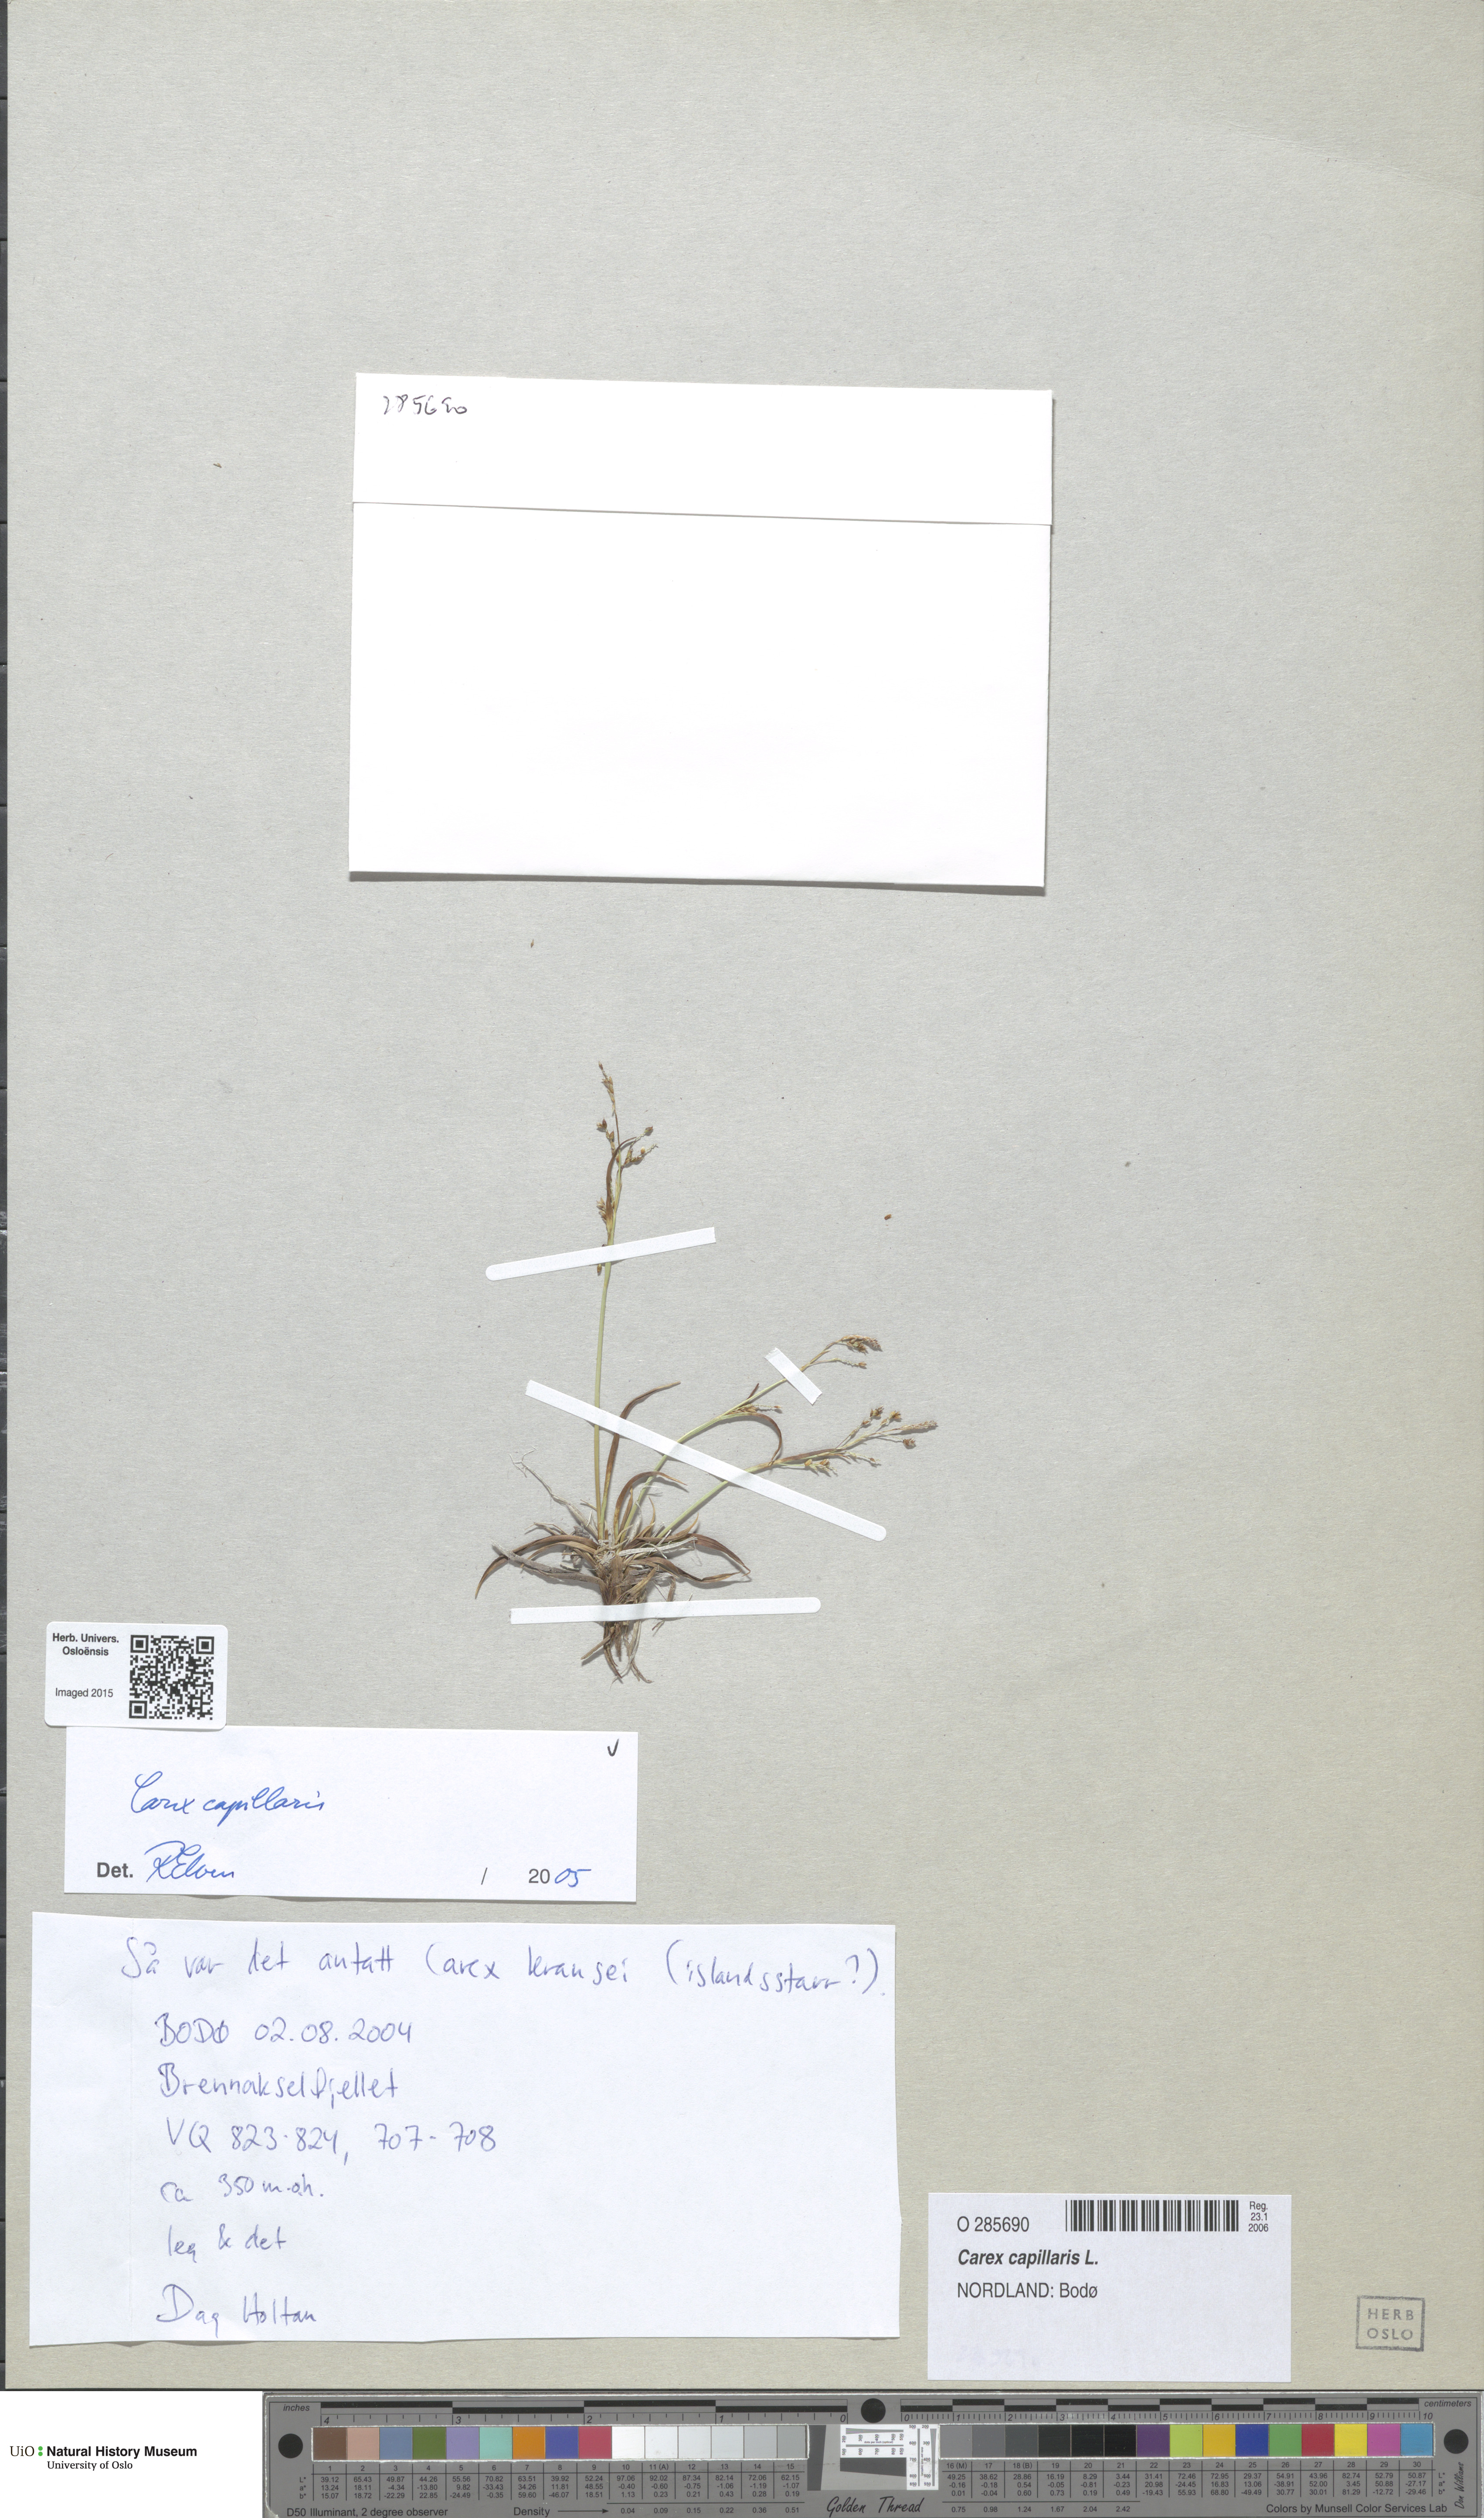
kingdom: Plantae
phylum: Tracheophyta
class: Liliopsida
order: Poales
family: Cyperaceae
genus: Carex
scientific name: Carex capillaris
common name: Hair sedge
